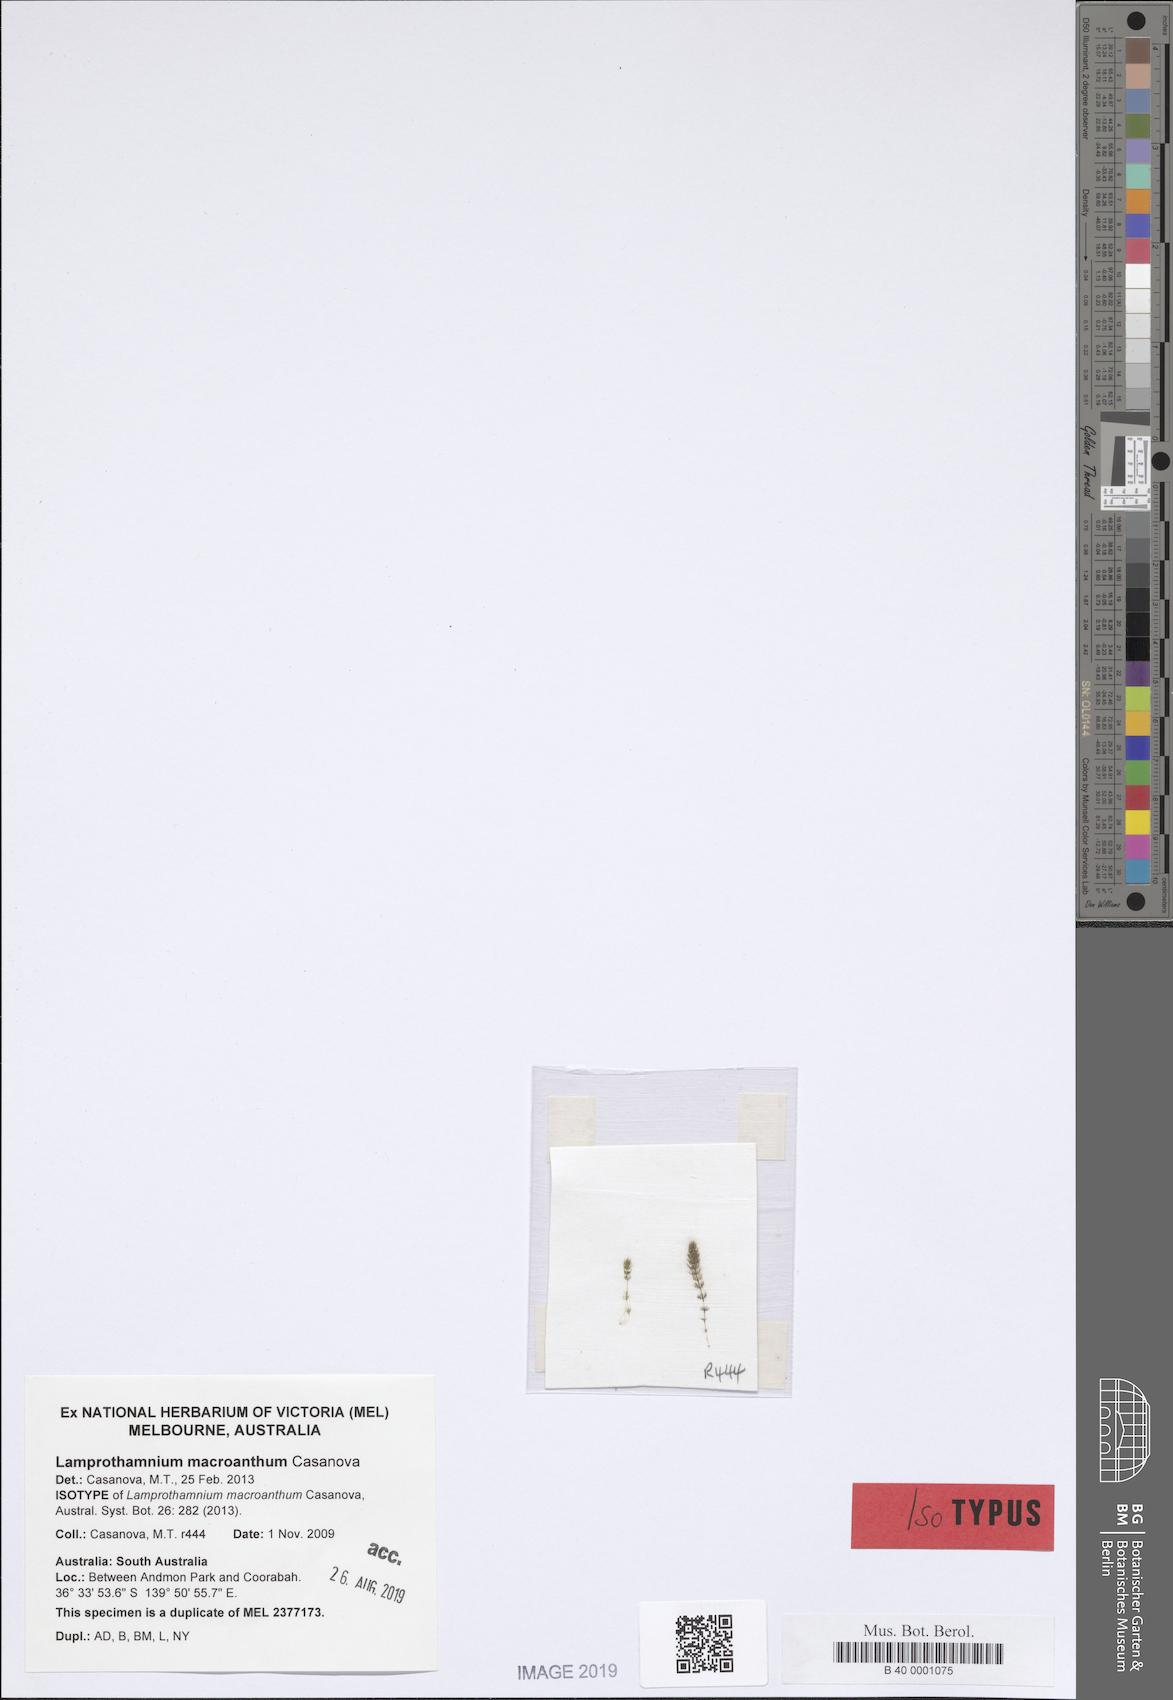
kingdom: Plantae
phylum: Charophyta
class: Charophyceae
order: Charales
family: Characeae
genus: Lamprothamnium
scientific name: Lamprothamnium
